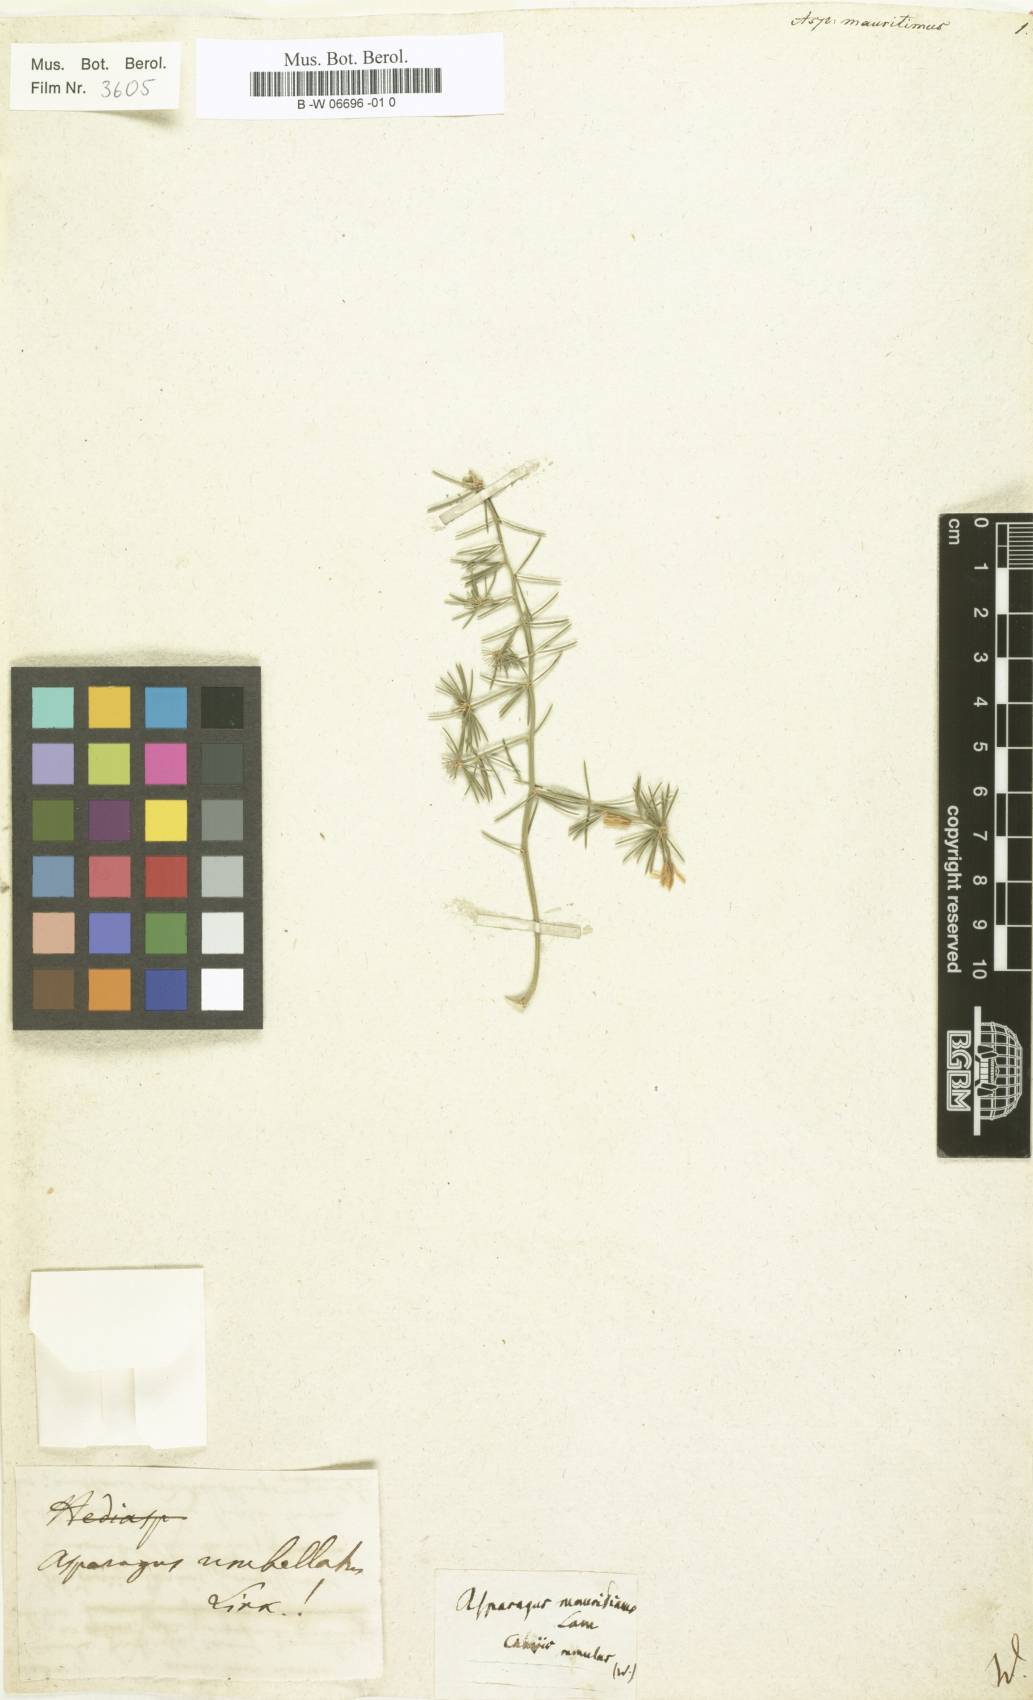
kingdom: Plantae
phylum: Tracheophyta
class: Liliopsida
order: Asparagales
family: Asparagaceae
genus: Asparagus
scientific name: Asparagus declinatus
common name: Bridal-creeper
